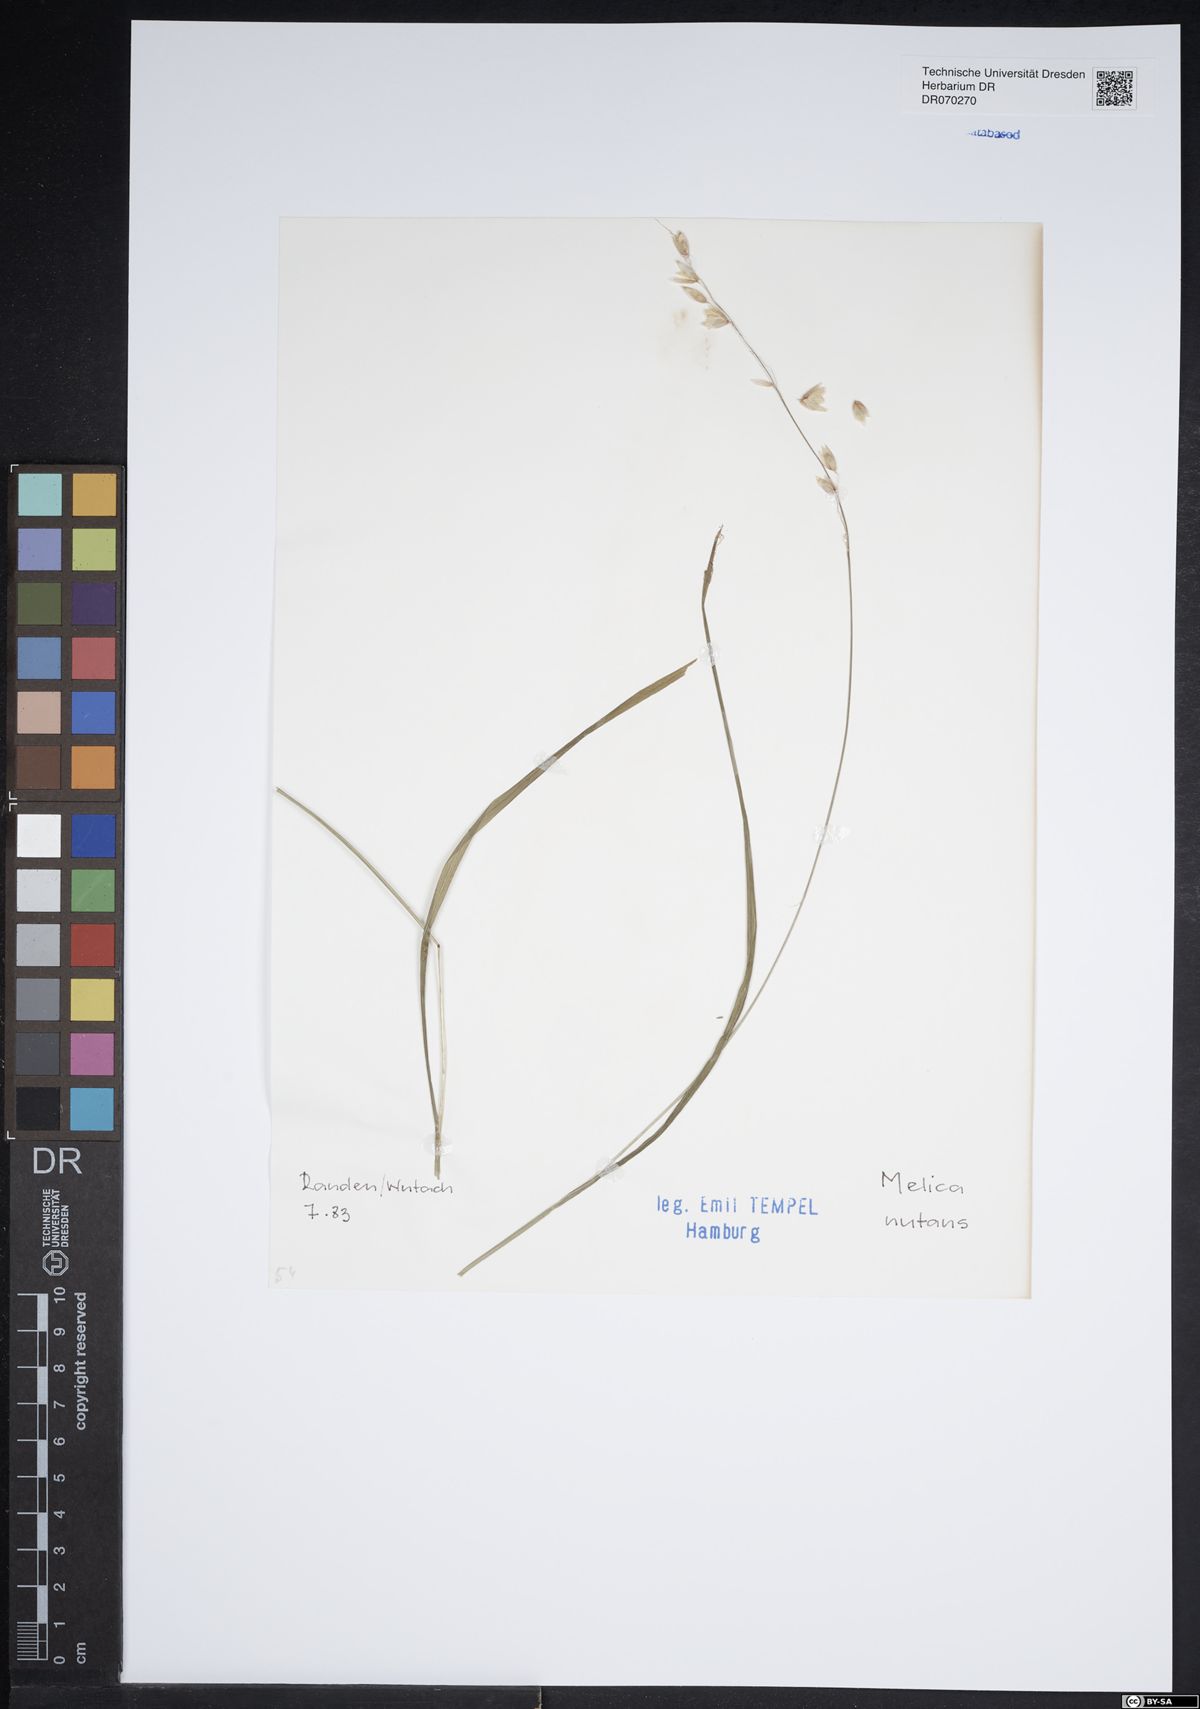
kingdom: Plantae
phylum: Tracheophyta
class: Liliopsida
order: Poales
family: Poaceae
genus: Melica
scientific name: Melica nutans
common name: Mountain melick
